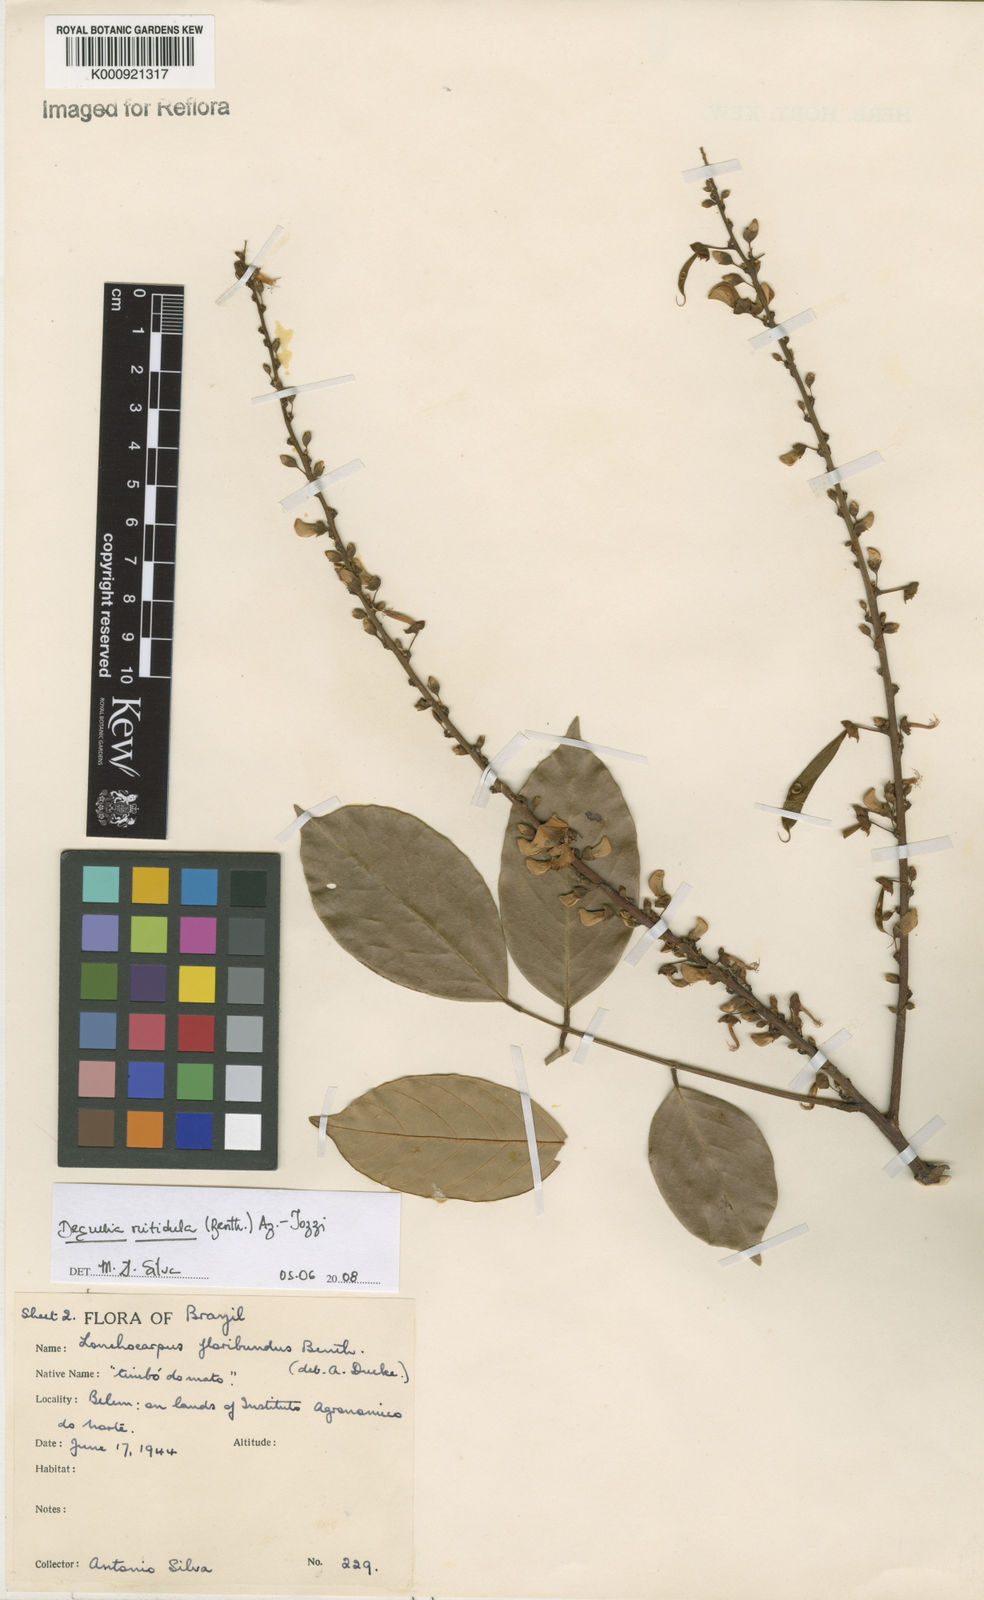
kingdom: Plantae
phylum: Tracheophyta
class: Magnoliopsida
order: Fabales
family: Fabaceae
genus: Deguelia
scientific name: Deguelia nitidula
